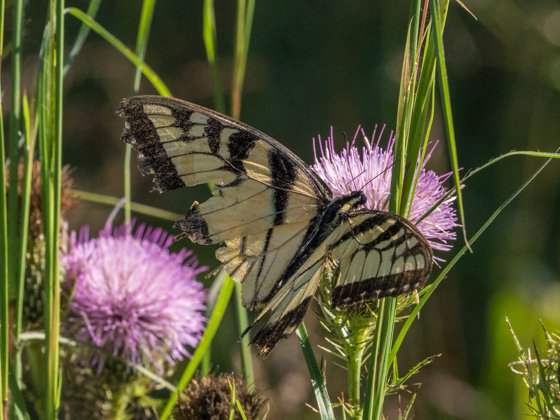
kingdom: Animalia
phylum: Arthropoda
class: Insecta
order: Lepidoptera
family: Papilionidae
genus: Pterourus
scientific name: Pterourus glaucus
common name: Eastern Tiger Swallowtail
